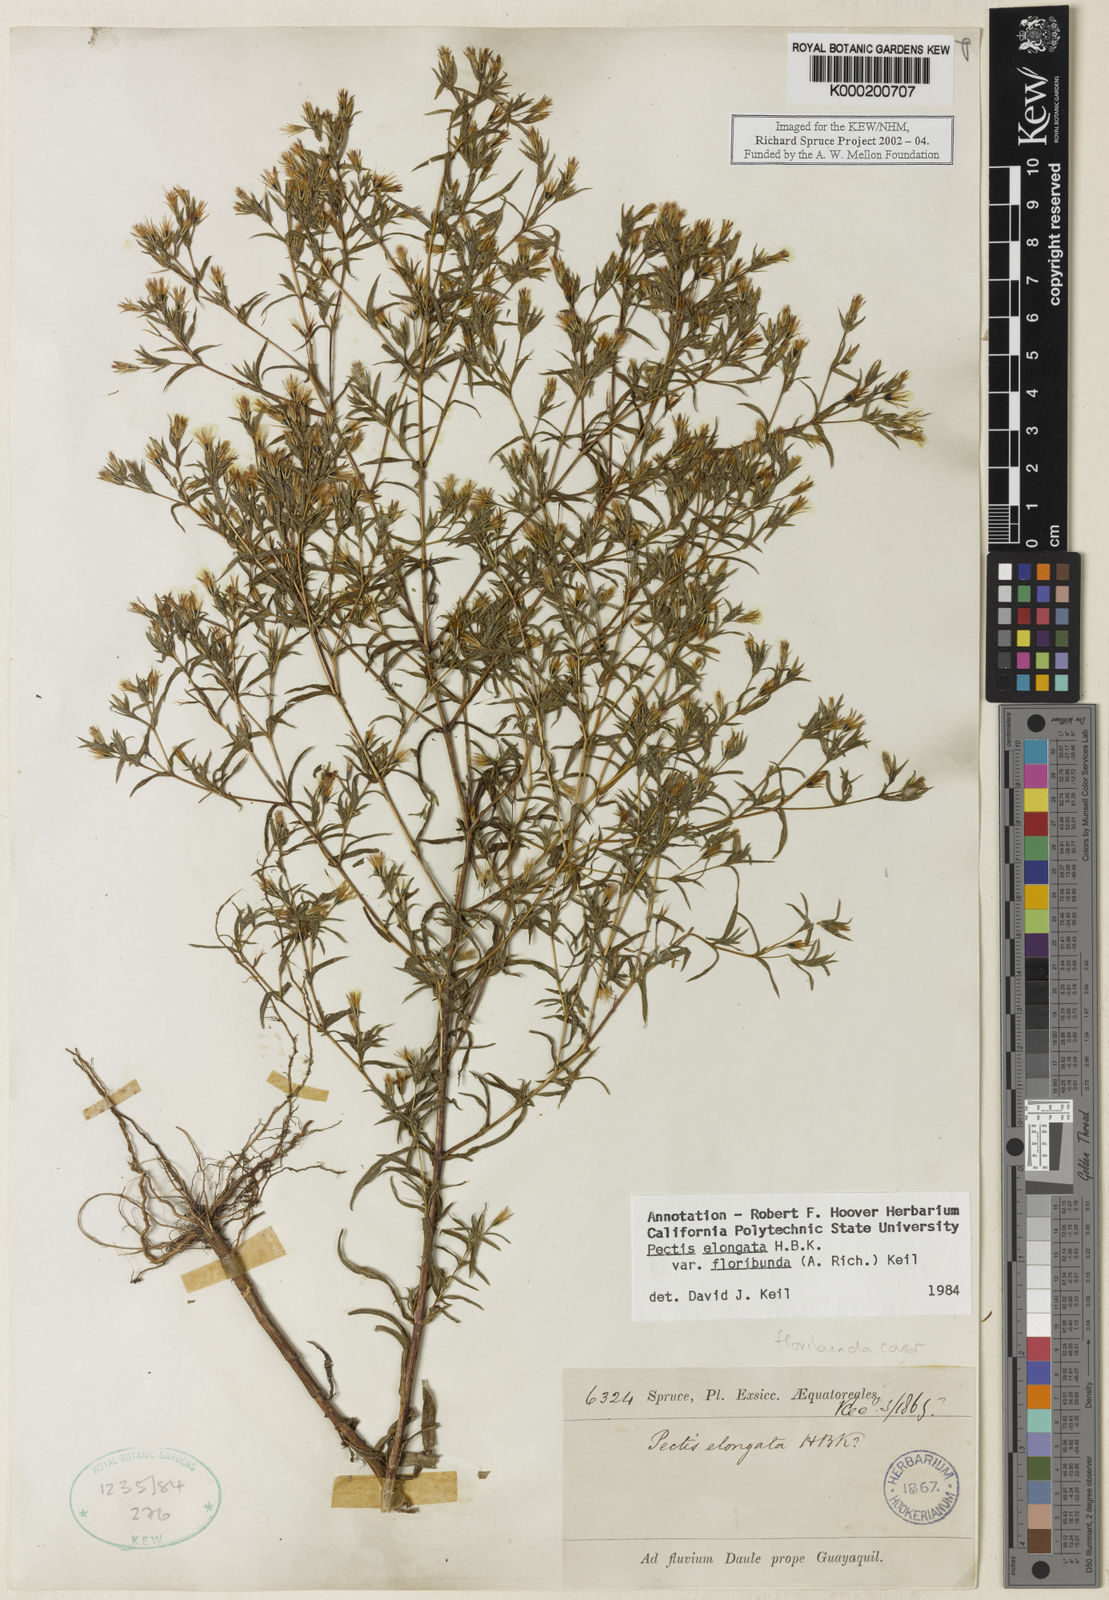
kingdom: Plantae
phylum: Tracheophyta
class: Magnoliopsida
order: Asterales
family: Asteraceae
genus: Pectis
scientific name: Pectis elongata
